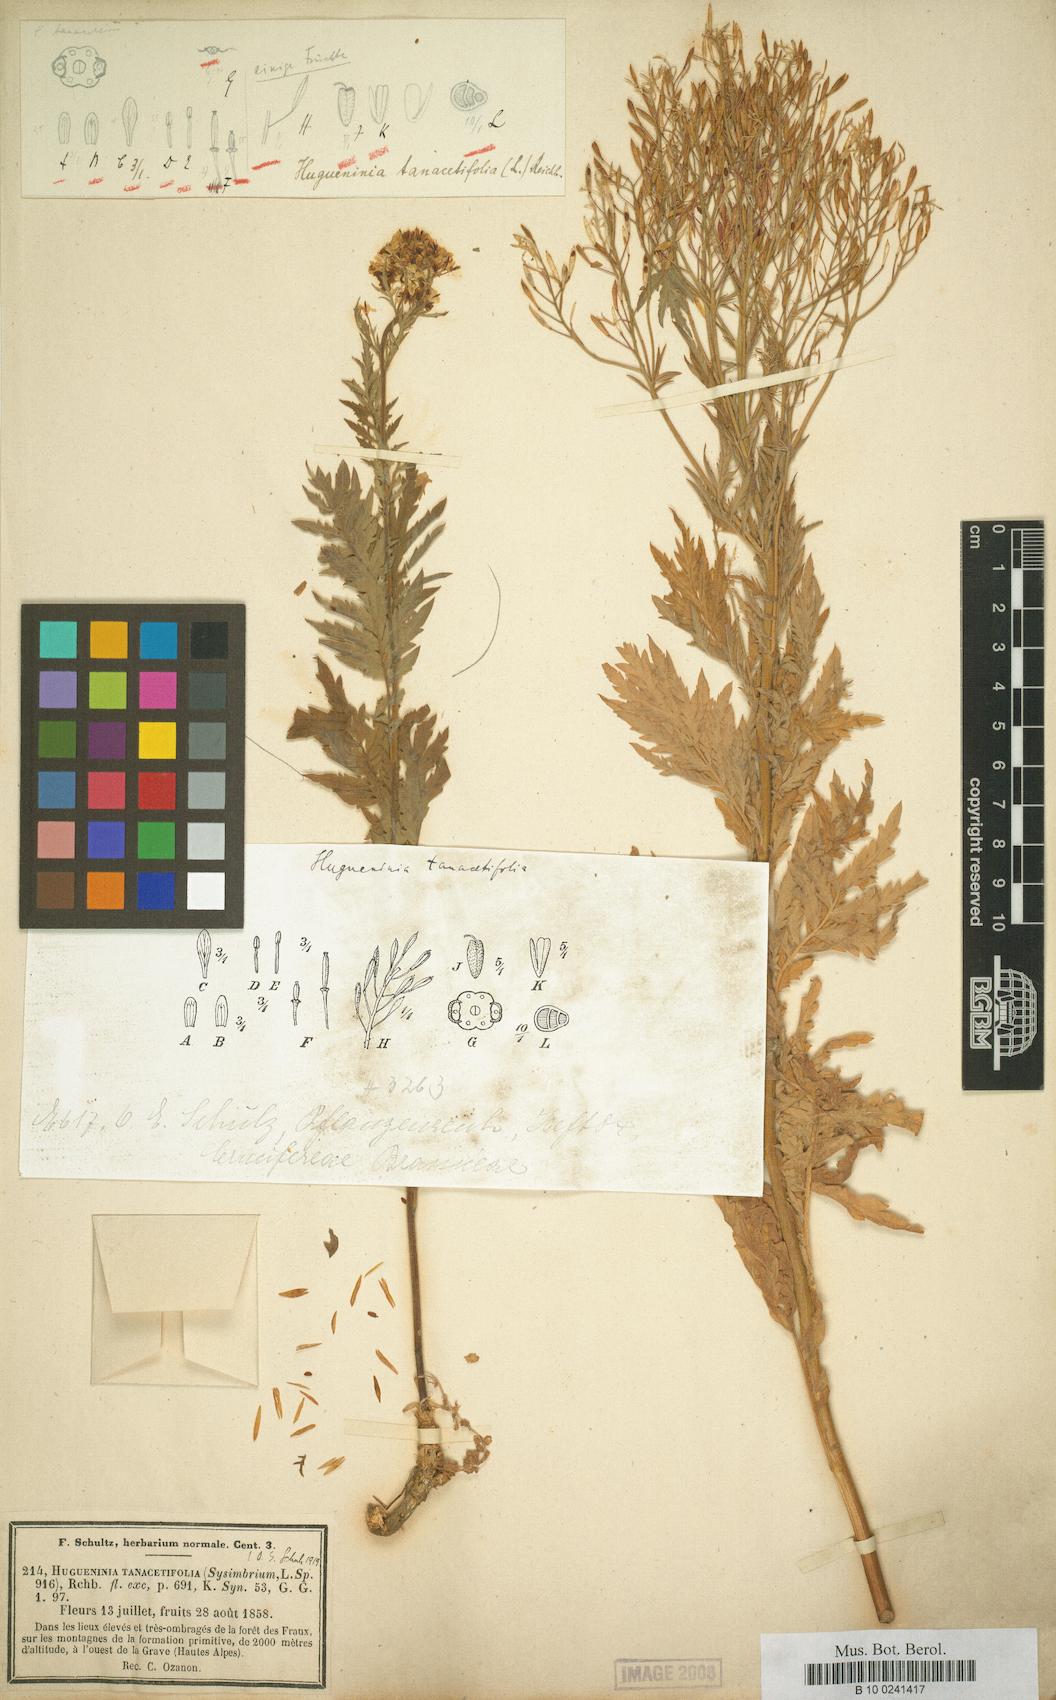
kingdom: Plantae
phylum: Tracheophyta
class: Magnoliopsida
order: Brassicales
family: Brassicaceae
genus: Descurainia
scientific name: Descurainia tanacetifolia
